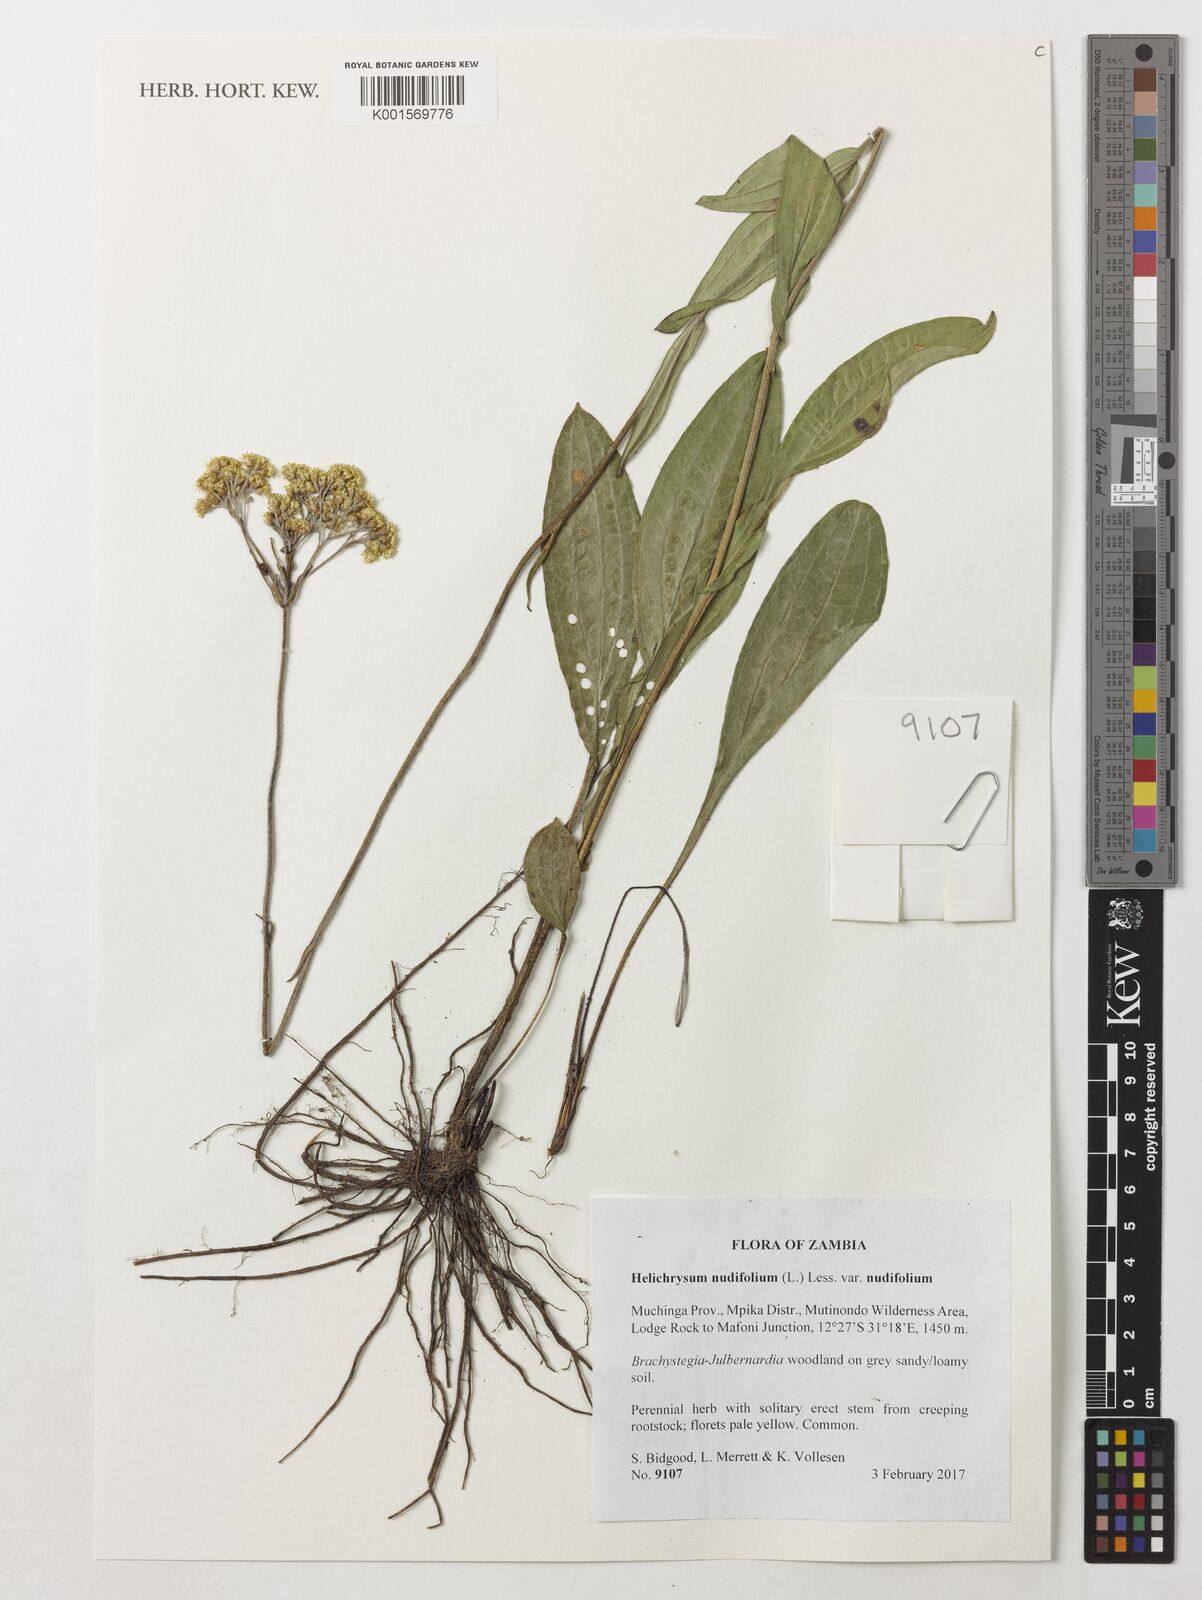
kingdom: Plantae
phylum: Tracheophyta
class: Magnoliopsida
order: Asterales
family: Asteraceae
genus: Helichrysum
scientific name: Helichrysum nudifolium
